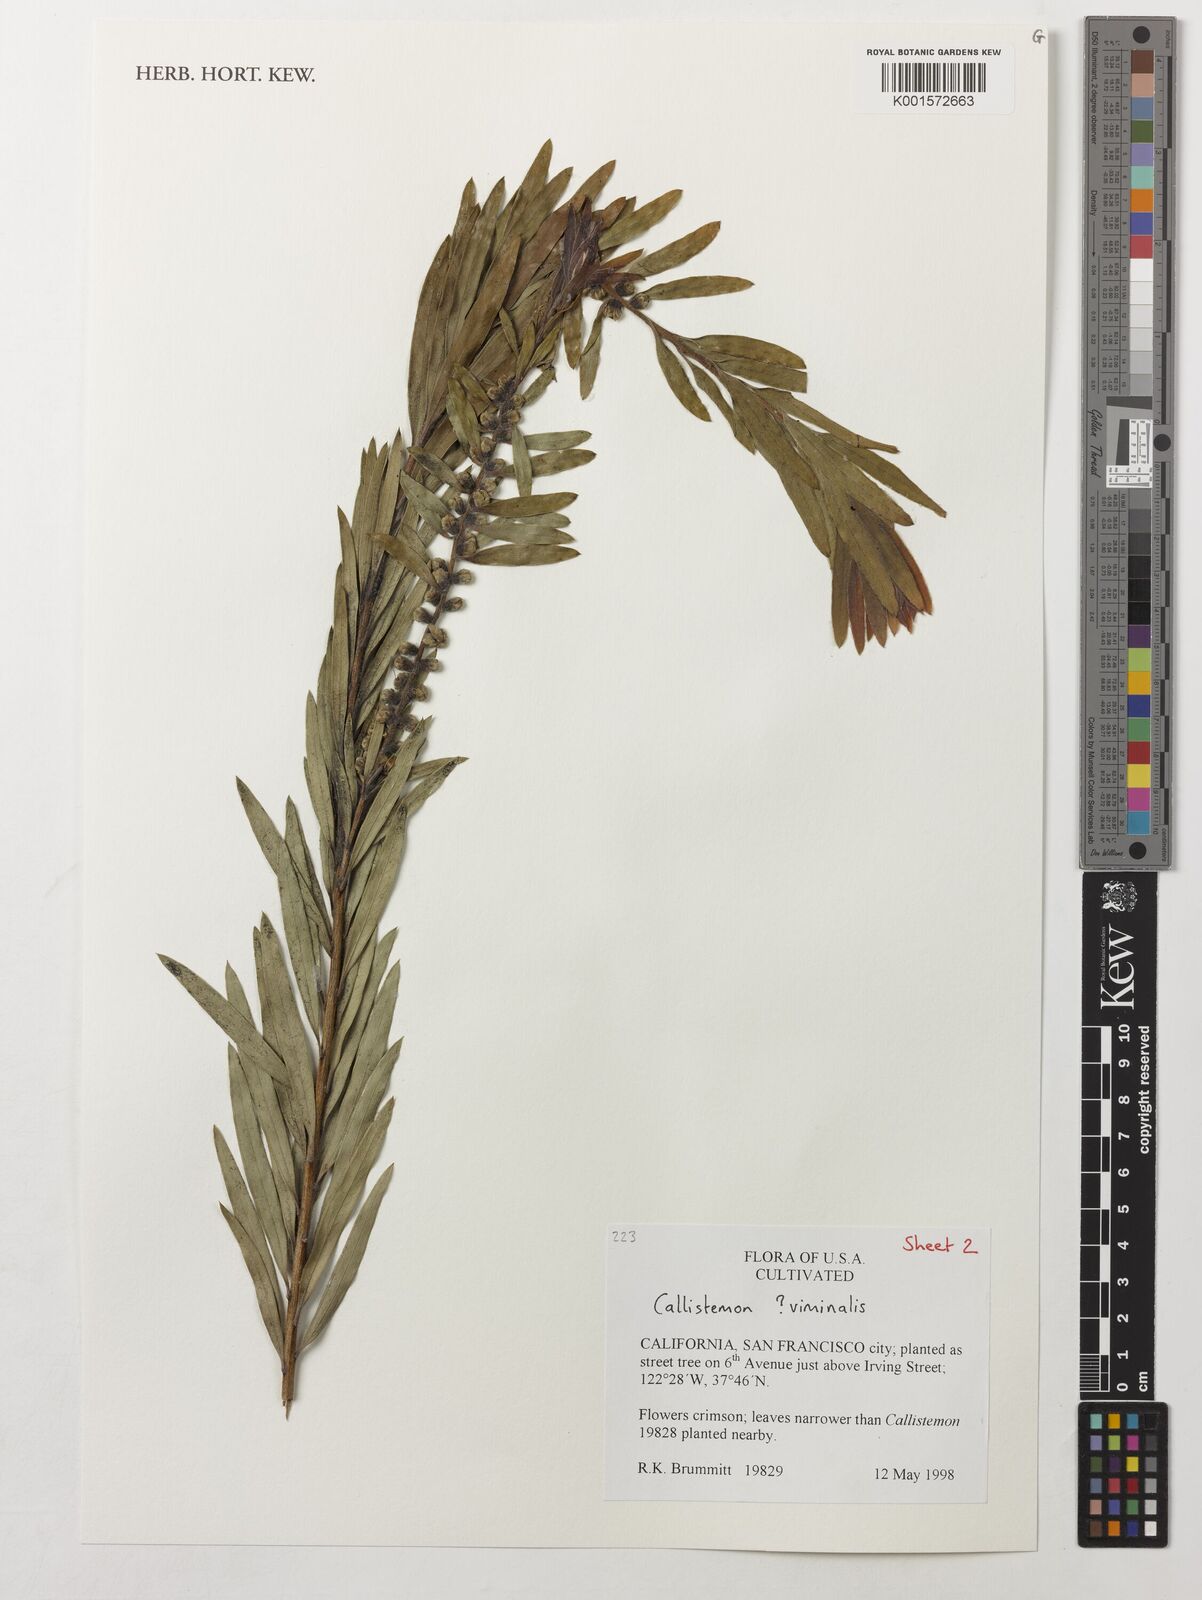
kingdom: Plantae
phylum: Tracheophyta
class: Magnoliopsida
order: Myrtales
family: Myrtaceae
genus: Callistemon
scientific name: Callistemon viminalis
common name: Drooping bottlebrush
